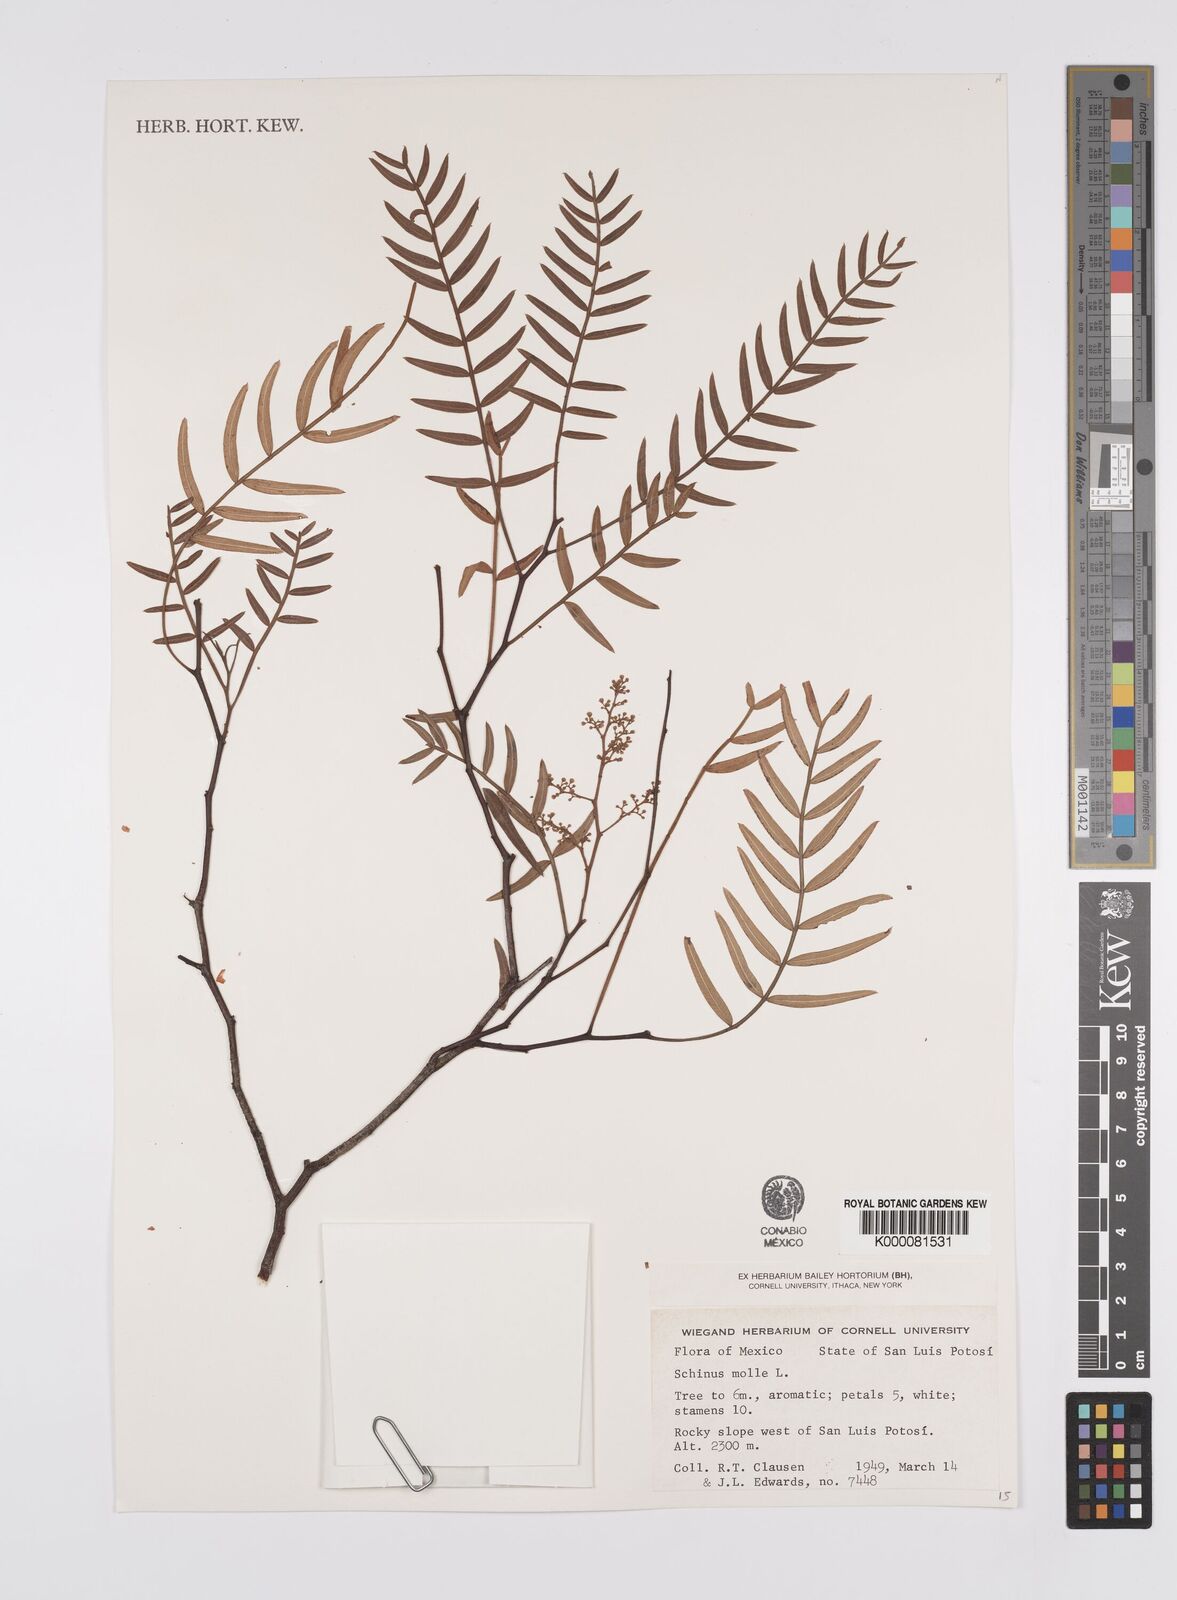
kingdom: Plantae
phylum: Tracheophyta
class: Magnoliopsida
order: Sapindales
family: Anacardiaceae
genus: Schinus
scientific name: Schinus molle
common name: Peruvian peppertree
